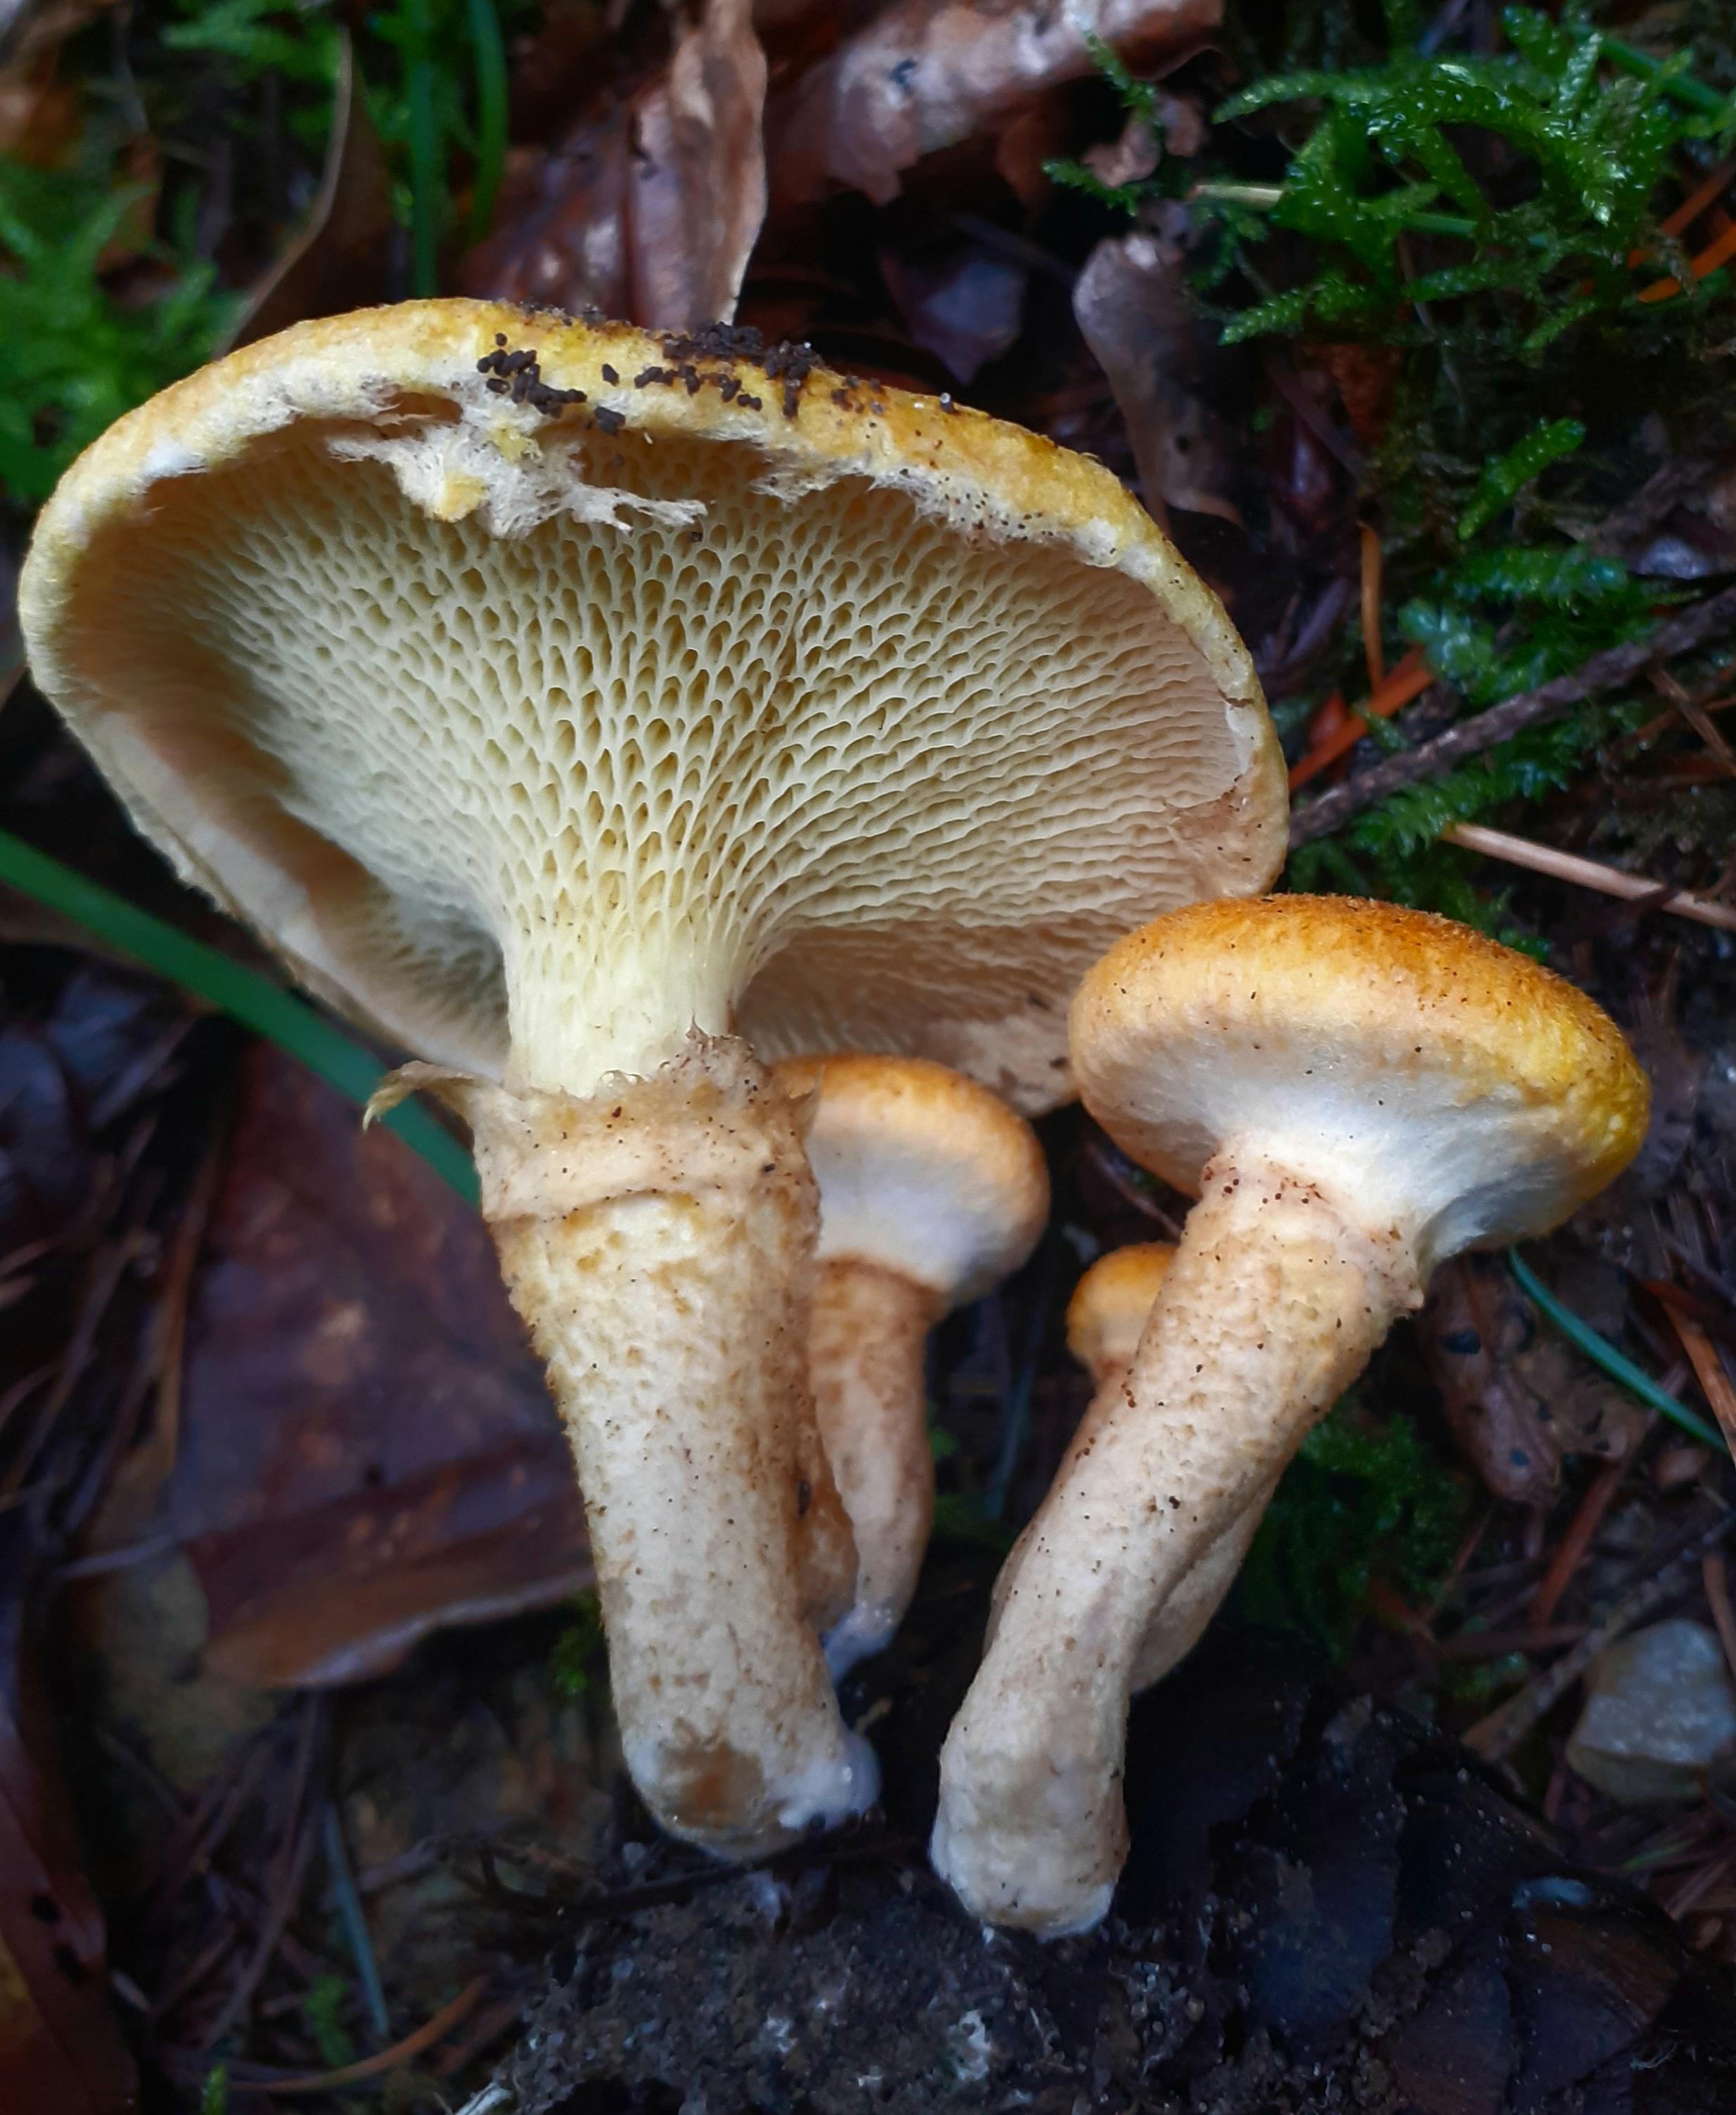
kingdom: Fungi
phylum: Basidiomycota
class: Agaricomycetes
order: Boletales
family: Suillaceae
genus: Suillus
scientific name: Suillus cavipes
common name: hulstokket slimrørhat
